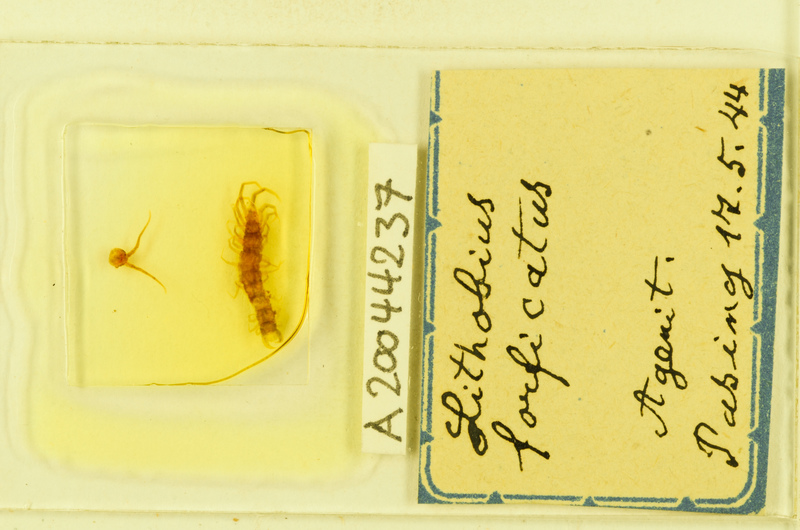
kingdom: Animalia
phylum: Arthropoda
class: Chilopoda
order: Lithobiomorpha
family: Lithobiidae
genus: Lithobius
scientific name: Lithobius forficatus
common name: Centipede
